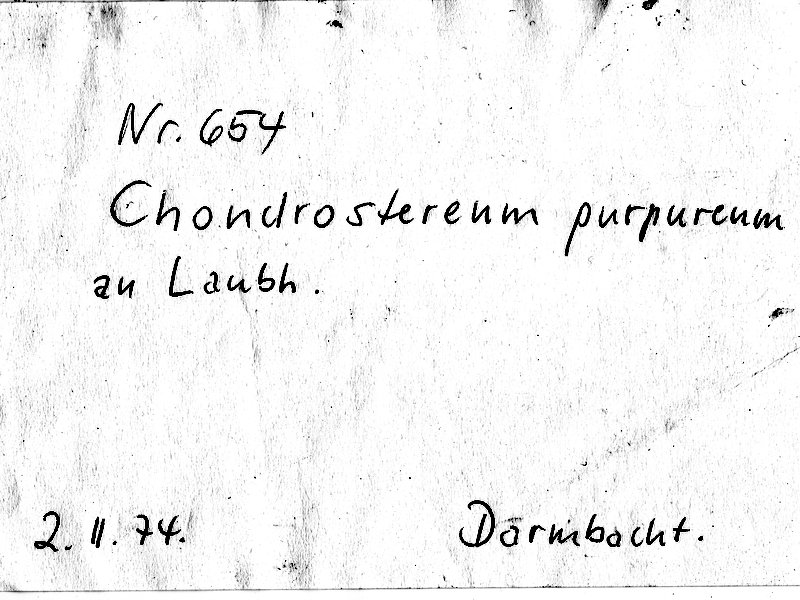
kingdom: Fungi
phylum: Basidiomycota
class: Agaricomycetes
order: Agaricales
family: Cyphellaceae
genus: Chondrostereum
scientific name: Chondrostereum purpureum
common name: Silver leaf disease
